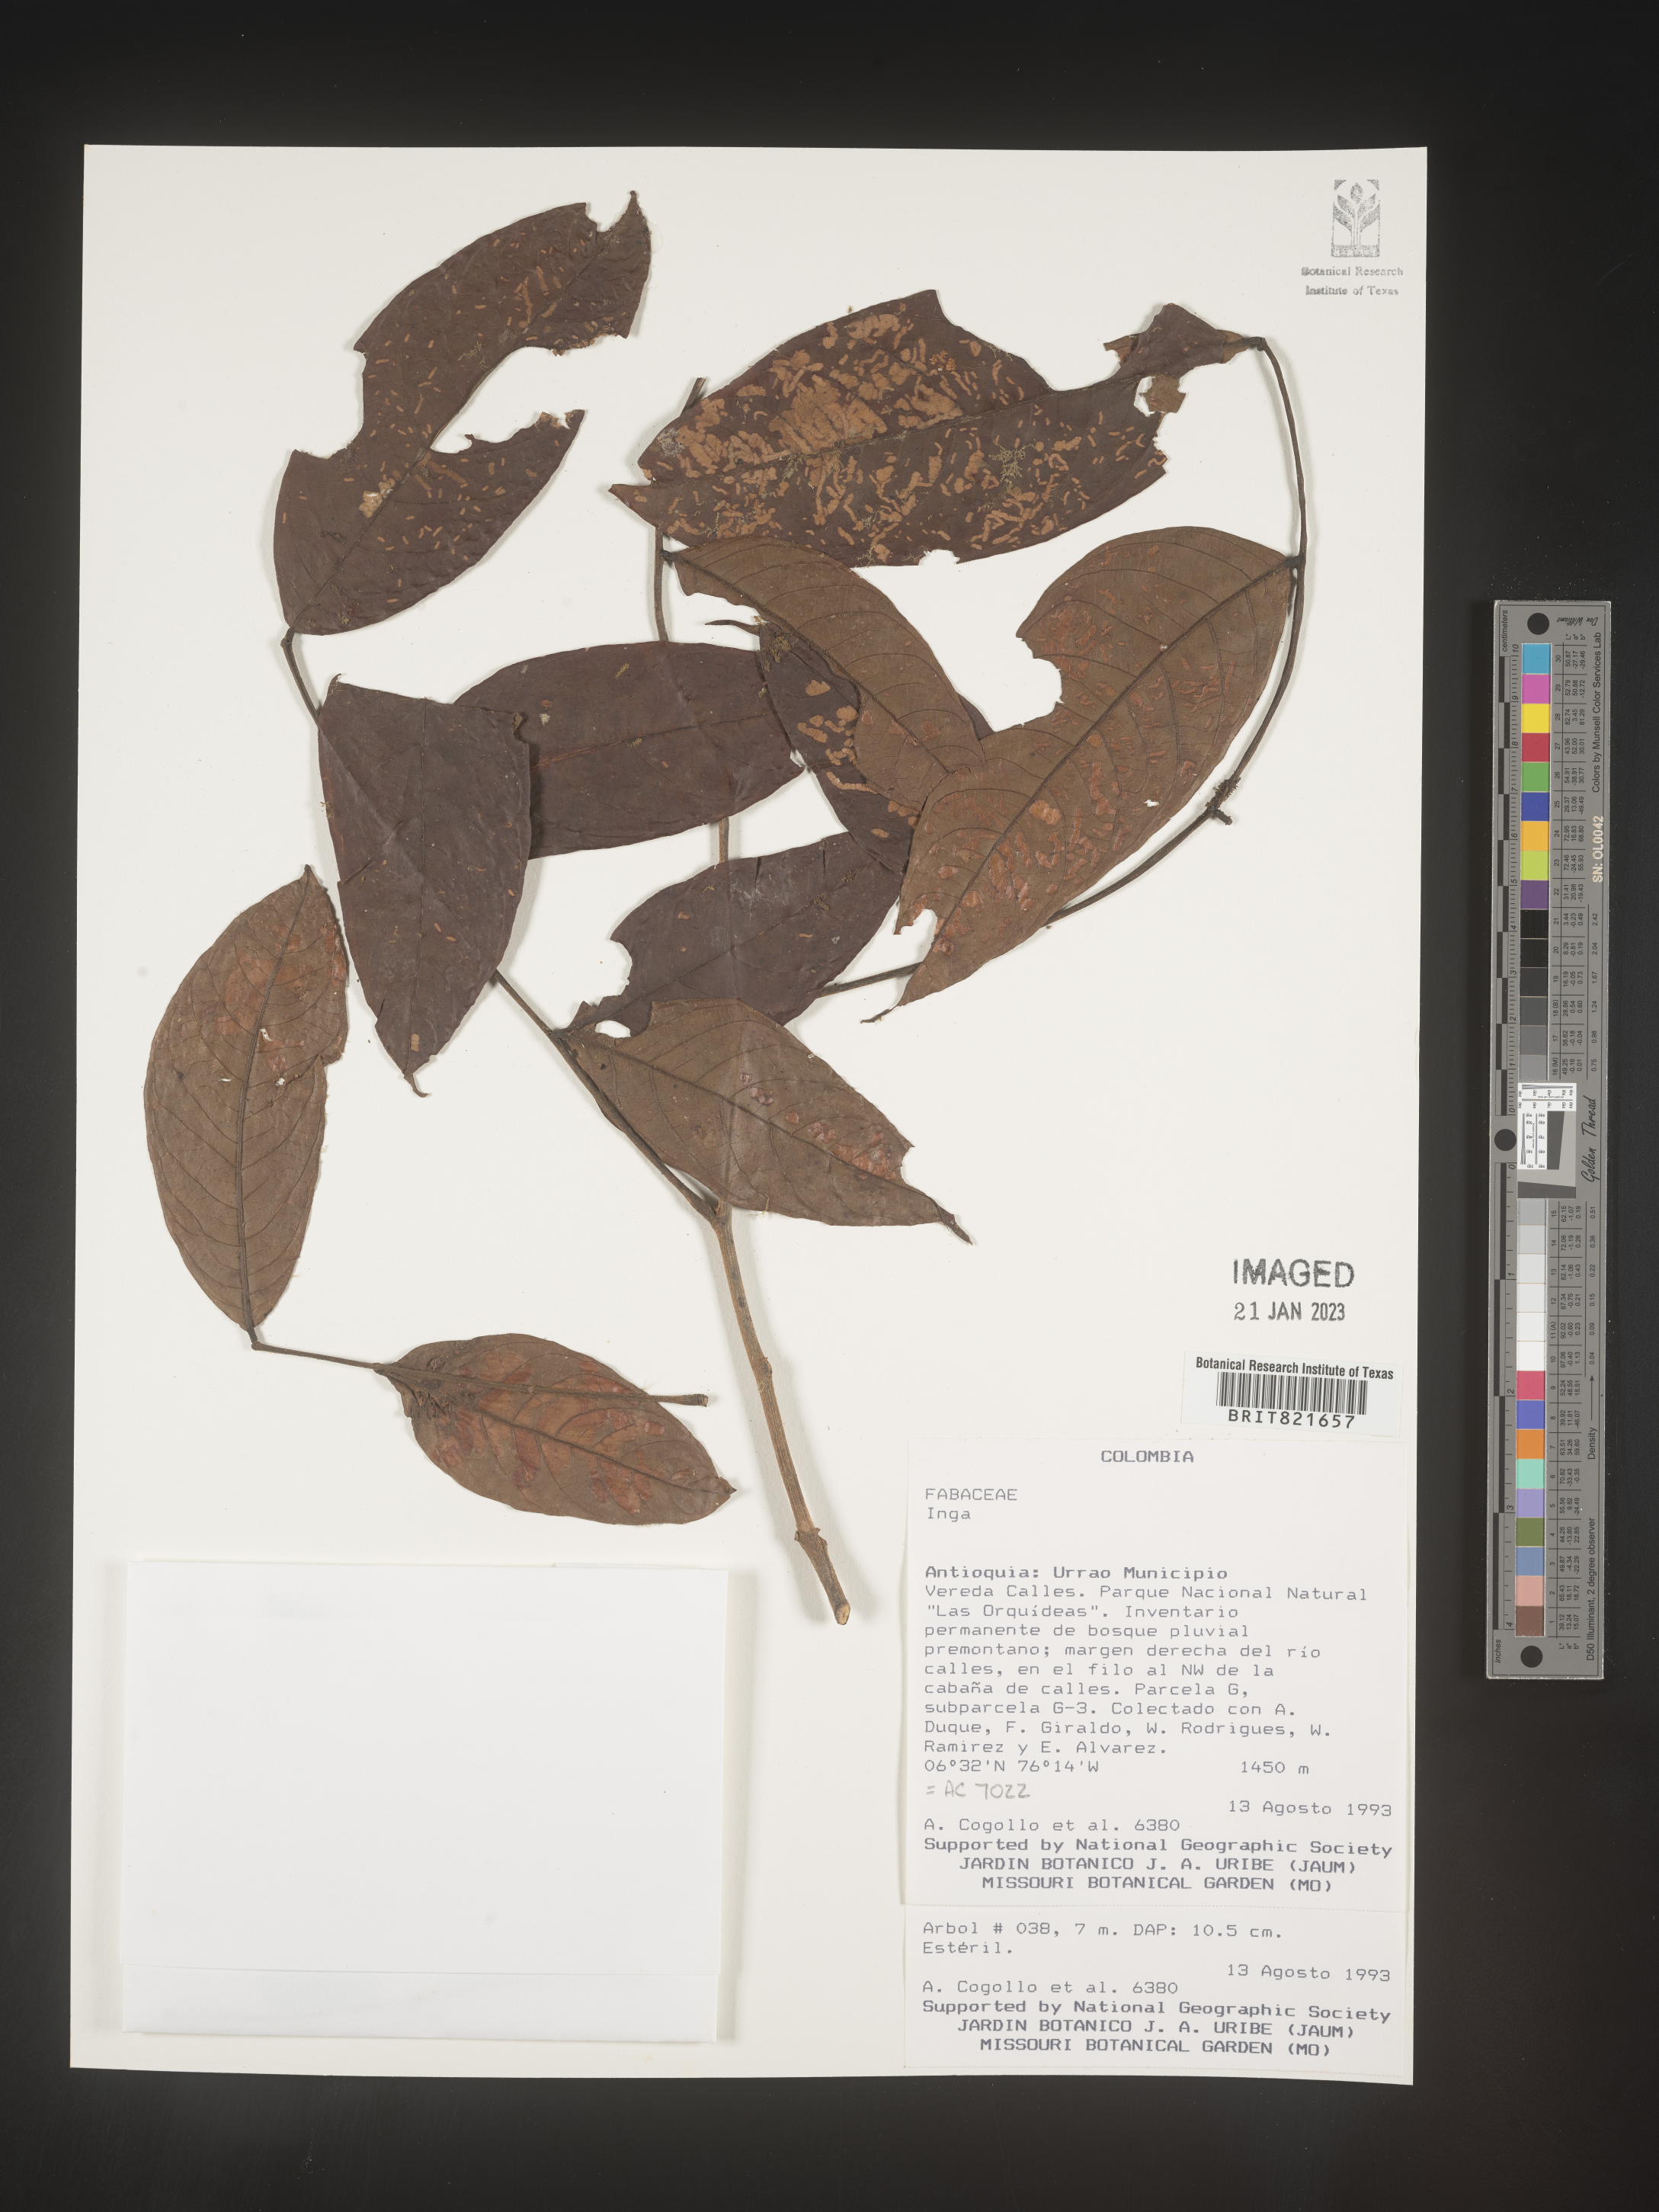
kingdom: Plantae
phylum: Tracheophyta
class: Magnoliopsida
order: Fabales
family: Fabaceae
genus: Inga
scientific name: Inga
